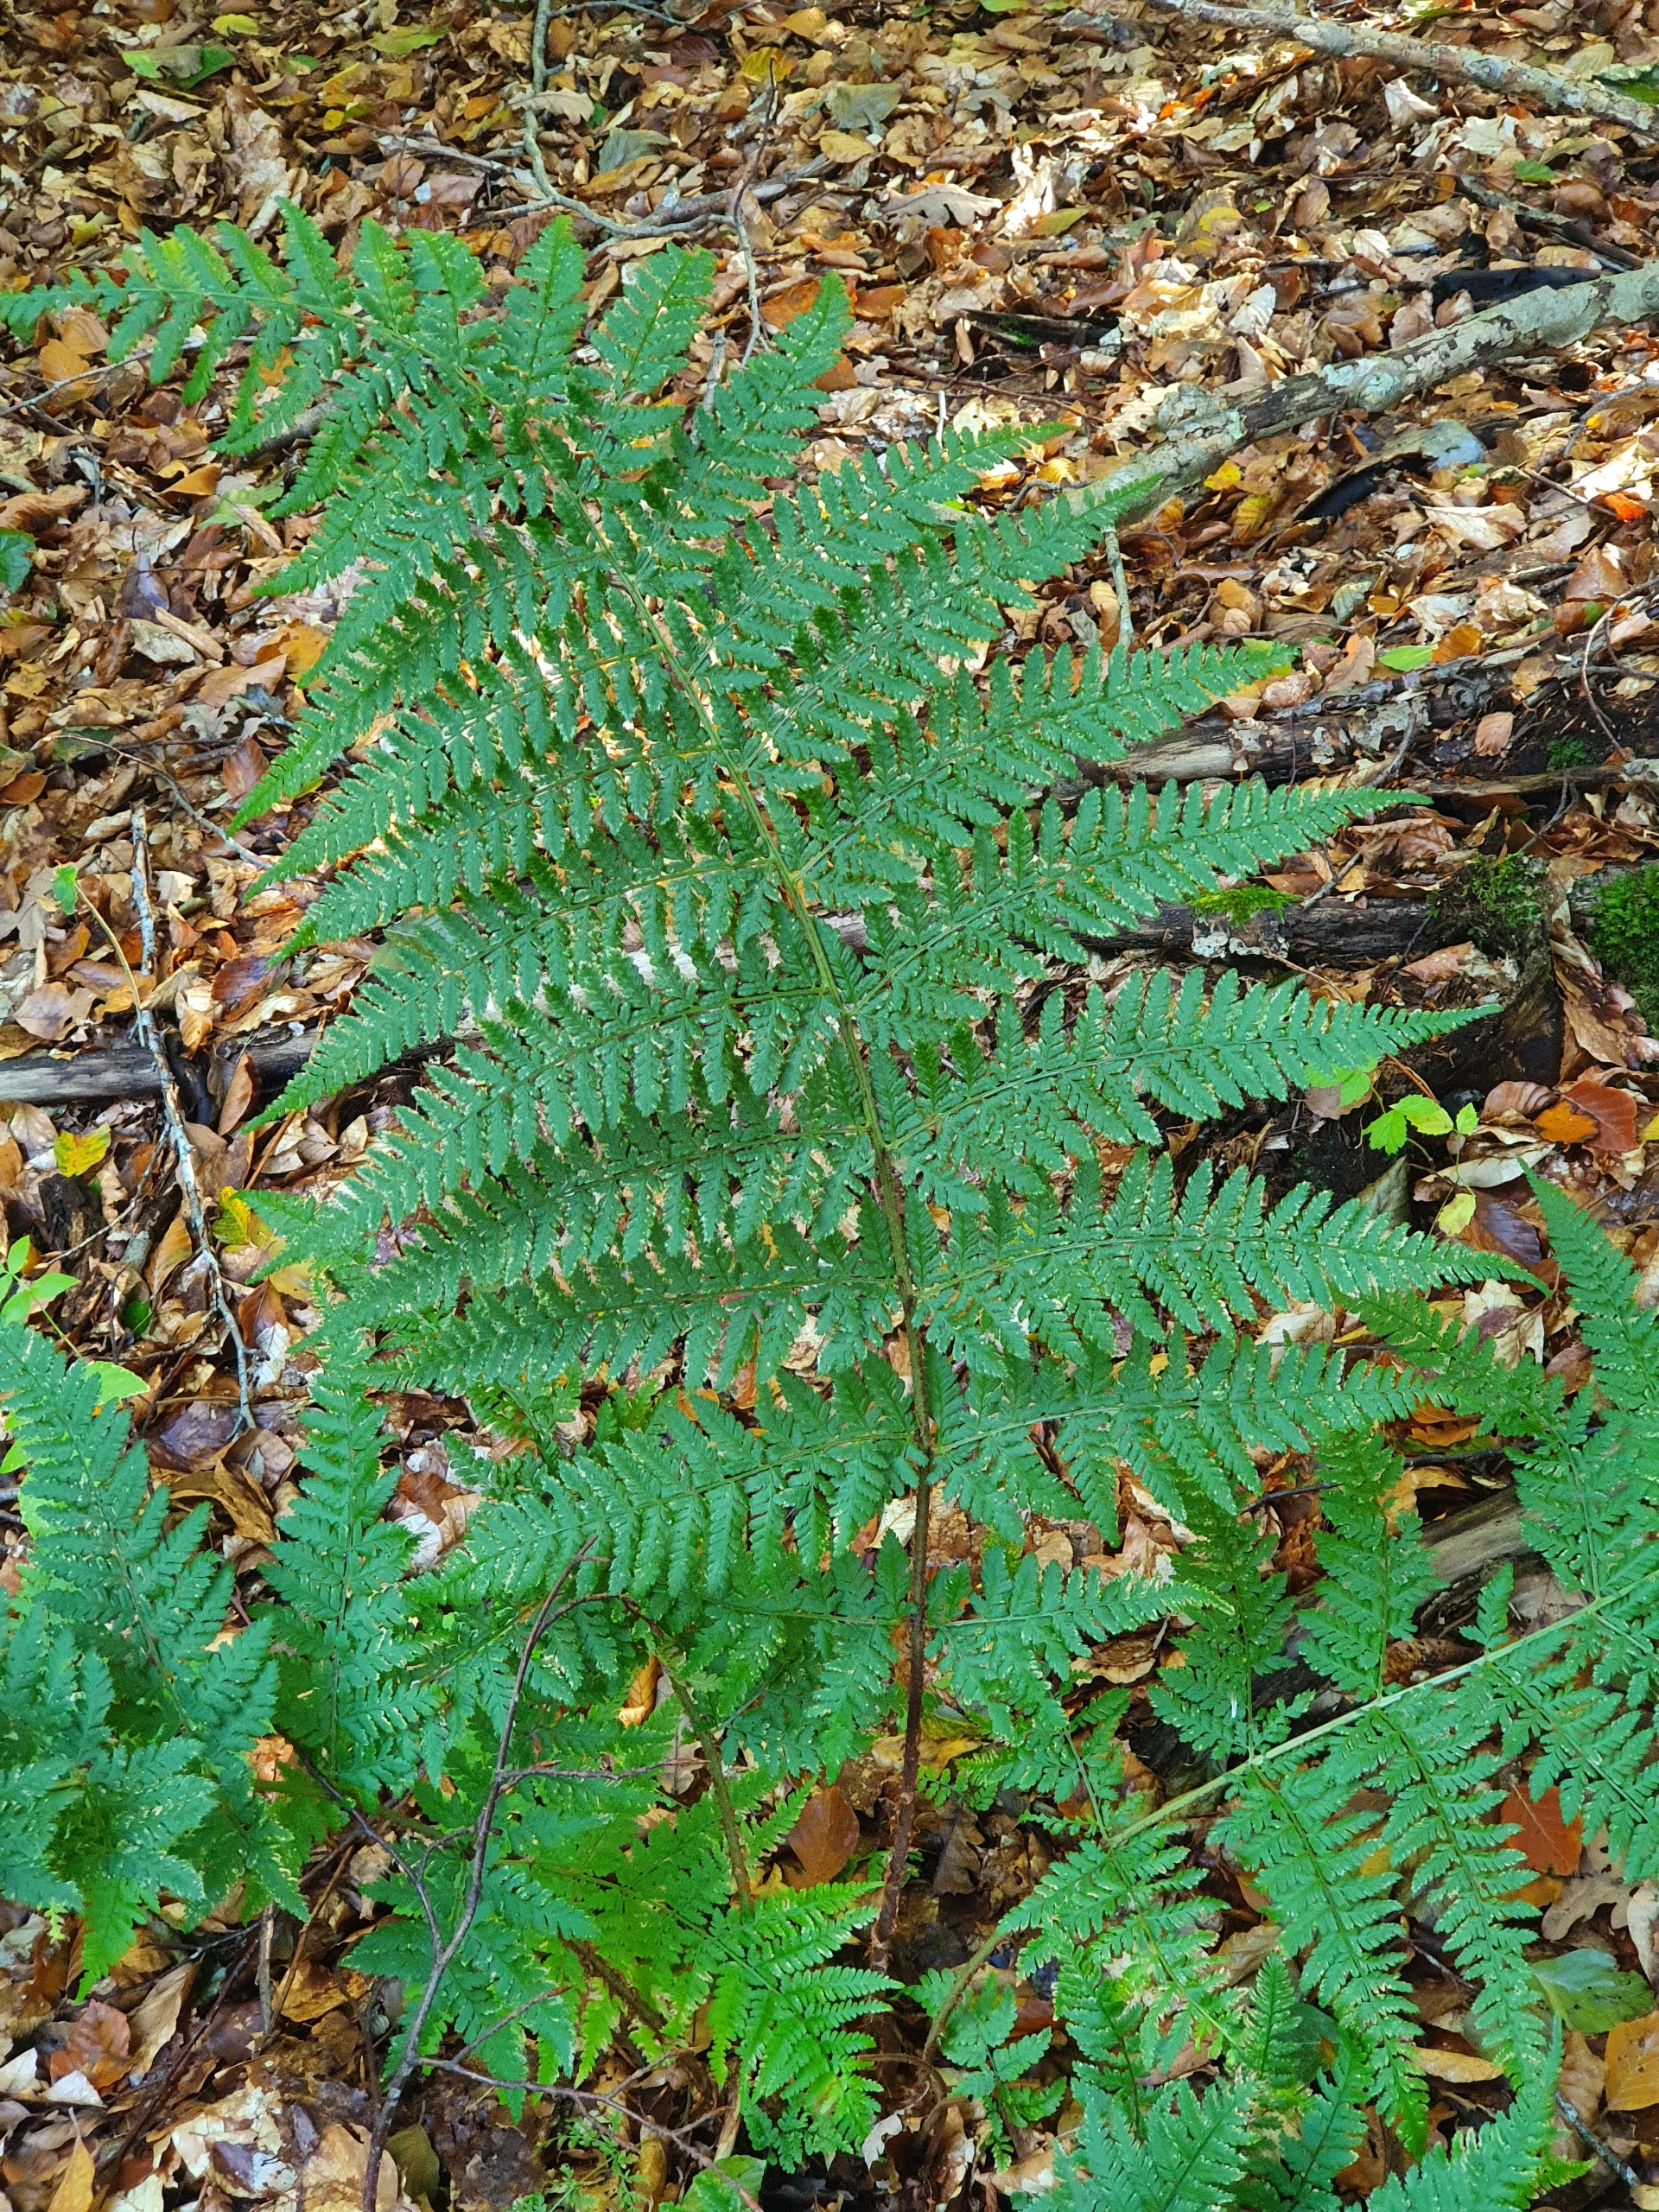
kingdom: Plantae
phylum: Tracheophyta
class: Polypodiopsida
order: Polypodiales
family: Dryopteridaceae
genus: Dryopteris
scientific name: Dryopteris dilatata
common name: Bredbladet mangeløv
